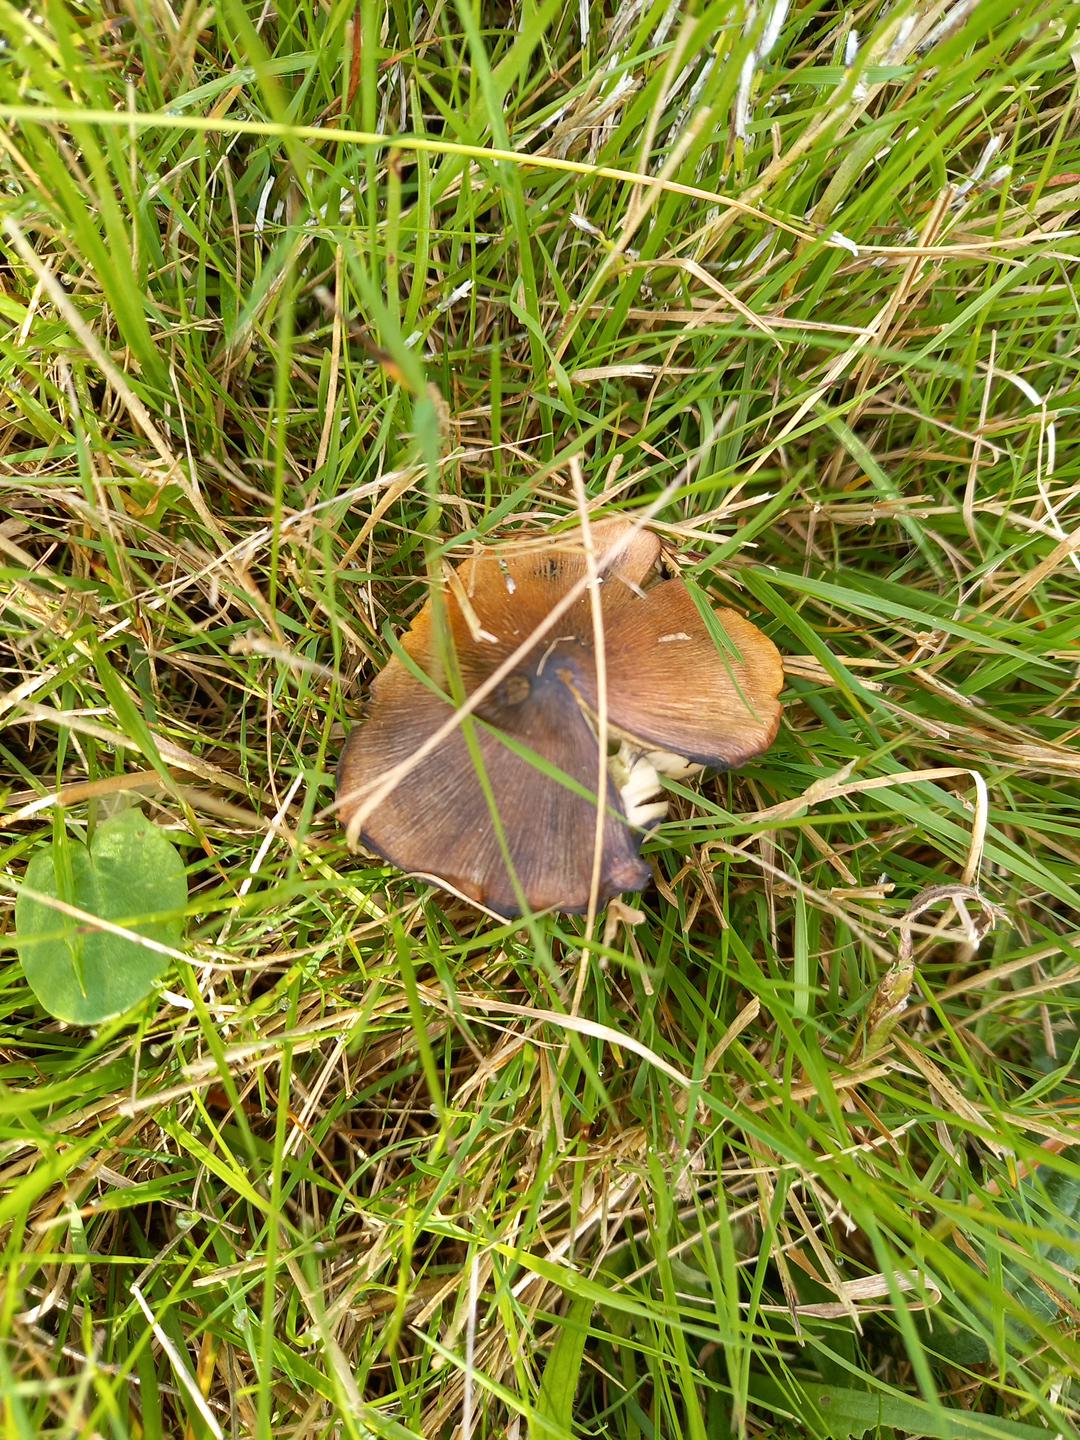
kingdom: Fungi
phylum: Basidiomycota
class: Agaricomycetes
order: Agaricales
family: Hygrophoraceae
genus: Hygrocybe
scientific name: Hygrocybe conica
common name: kegle-vokshat
